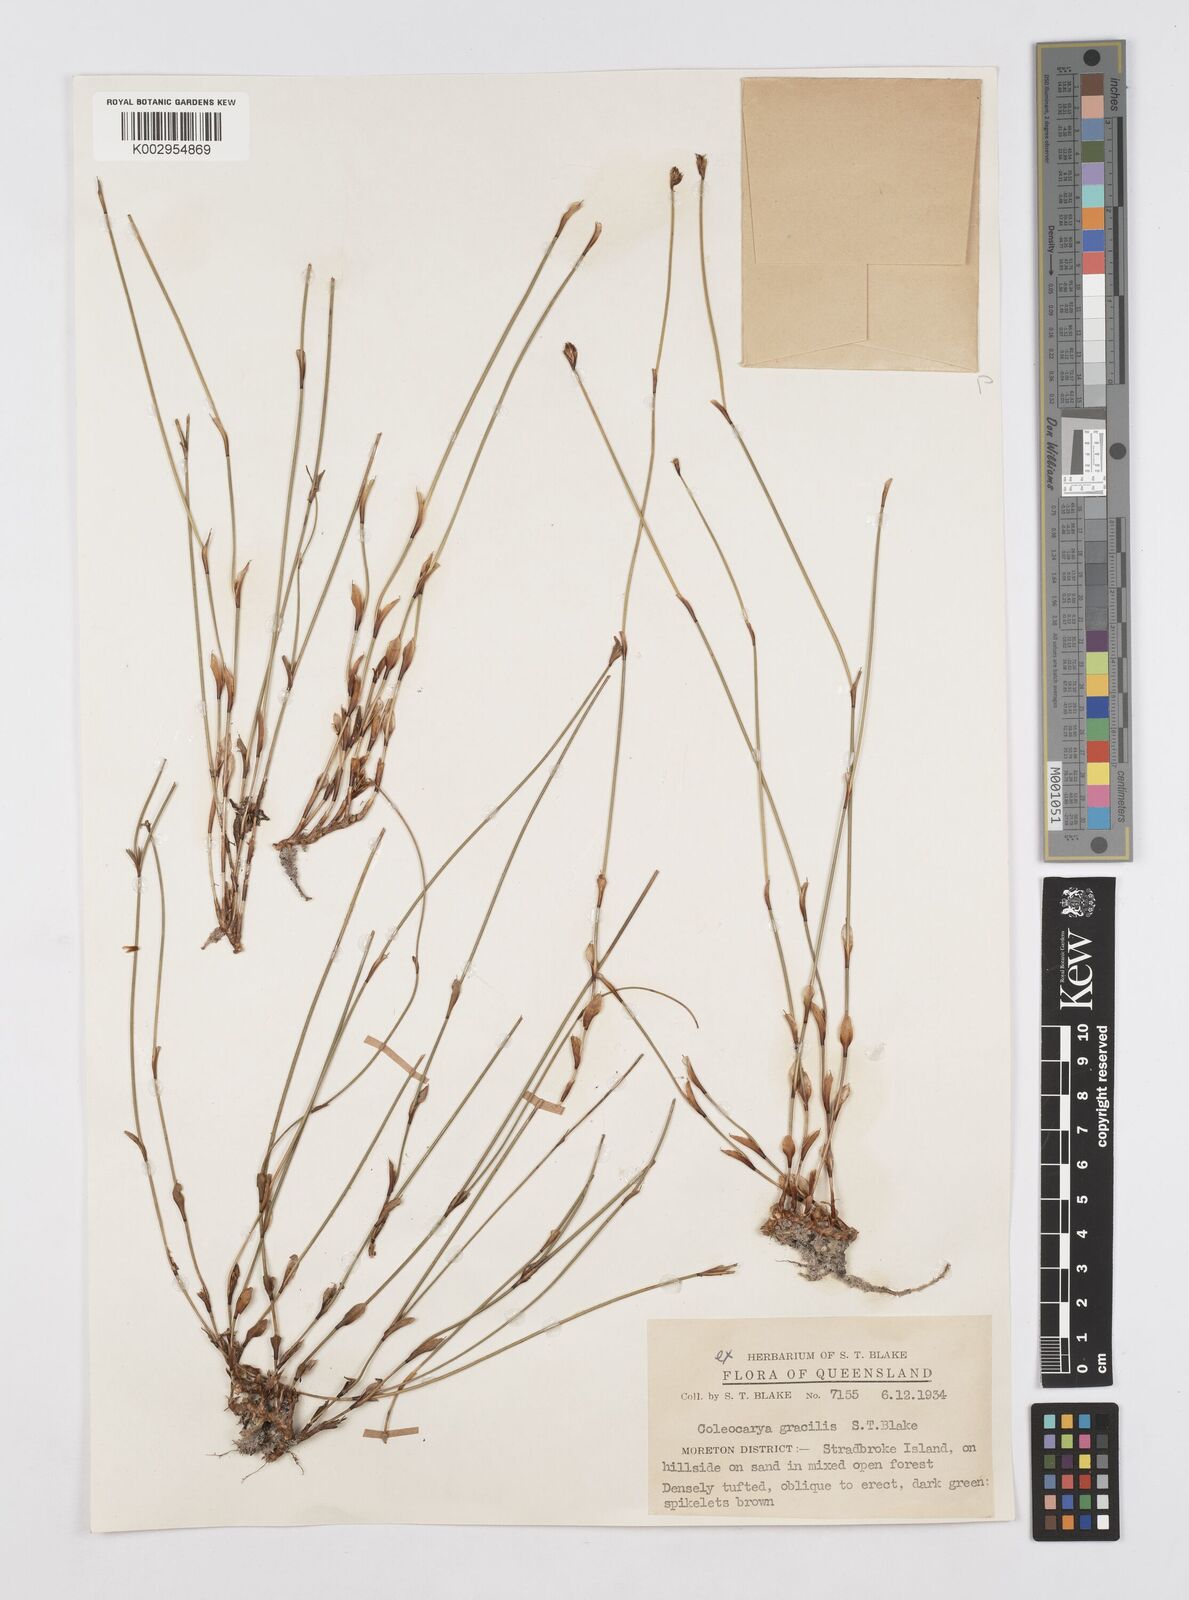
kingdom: Plantae
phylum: Tracheophyta
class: Liliopsida
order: Poales
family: Restionaceae
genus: Coleocarya
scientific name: Coleocarya gracilis
